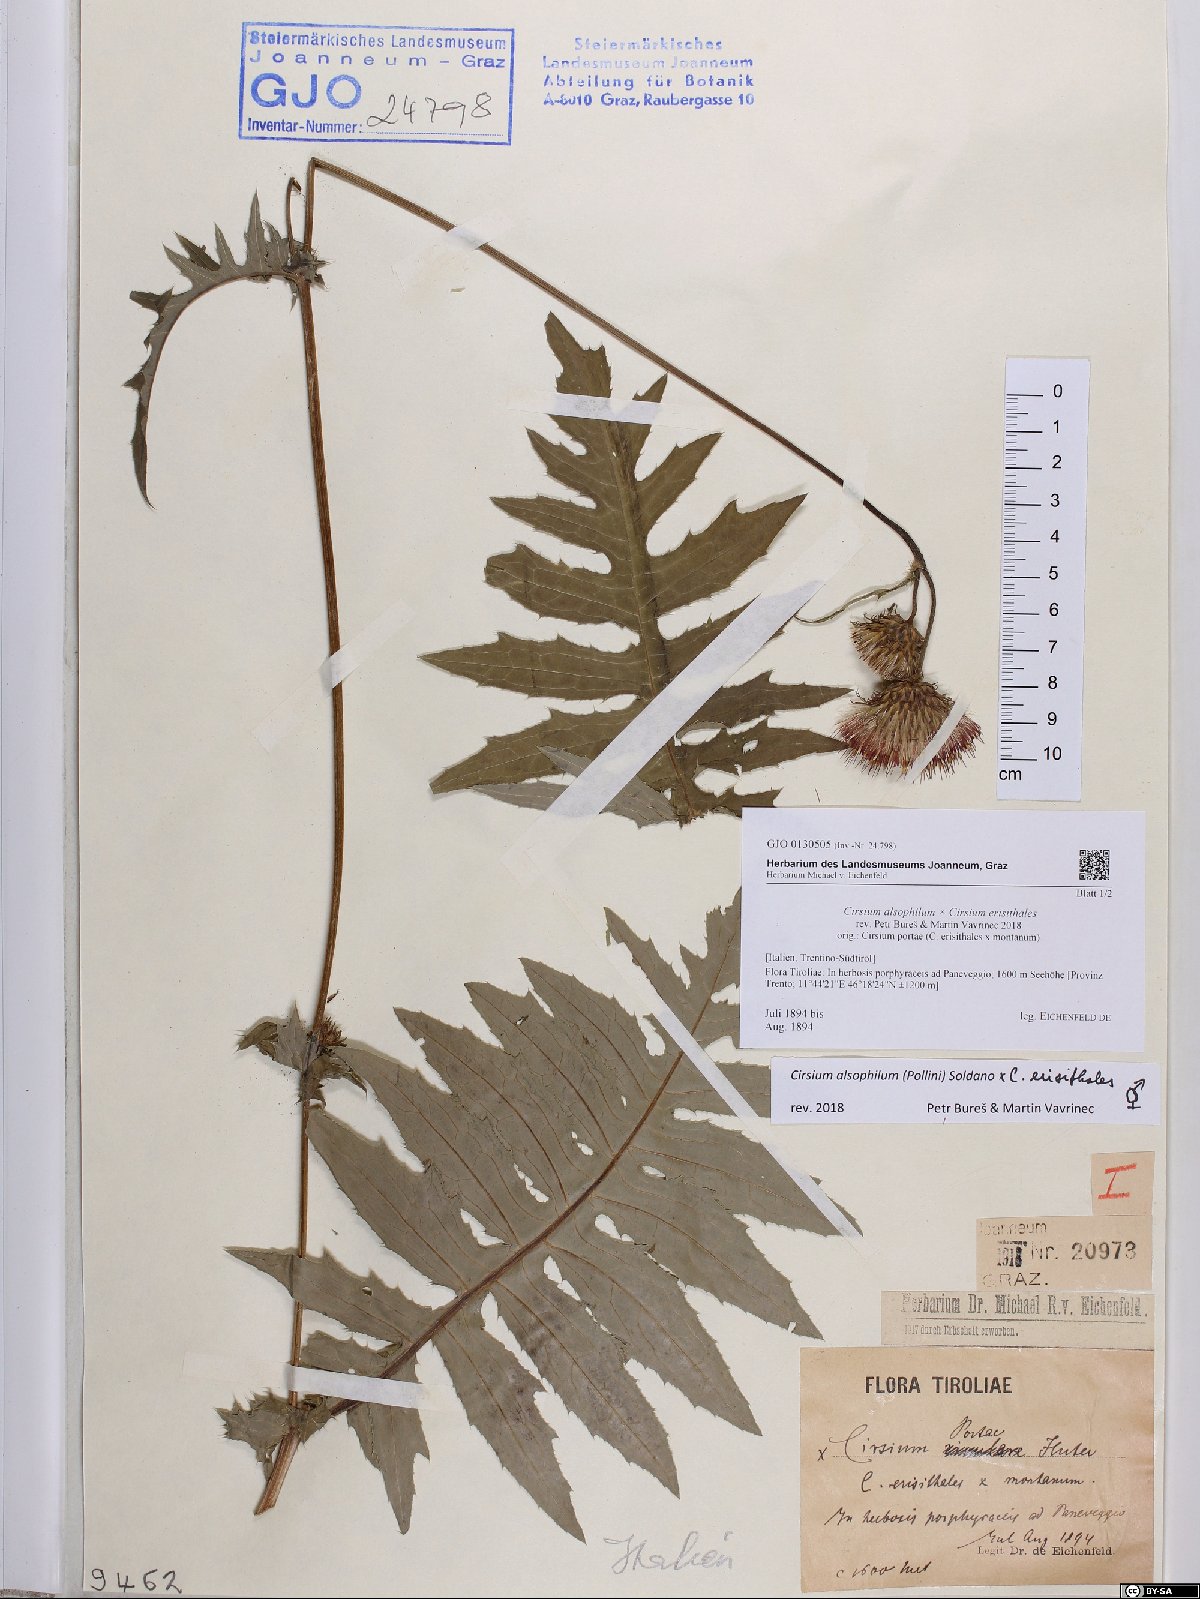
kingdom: Plantae
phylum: Tracheophyta
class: Magnoliopsida
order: Asterales
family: Asteraceae
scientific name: Asteraceae
